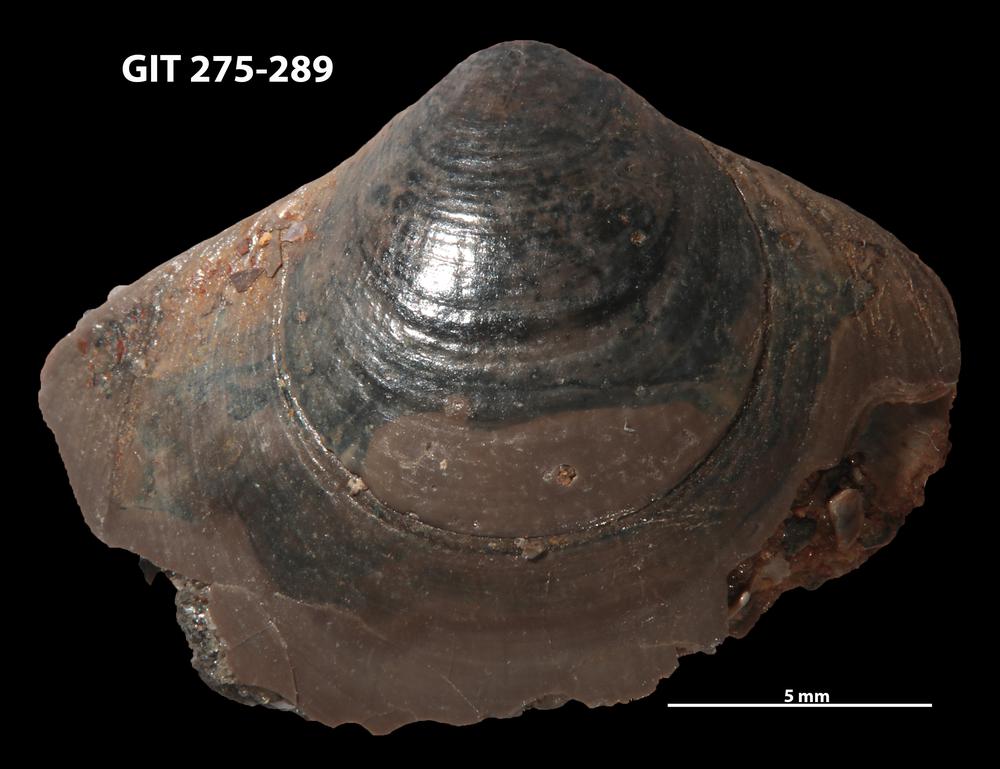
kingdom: Animalia
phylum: Brachiopoda
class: Lingulata
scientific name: Lingulata
